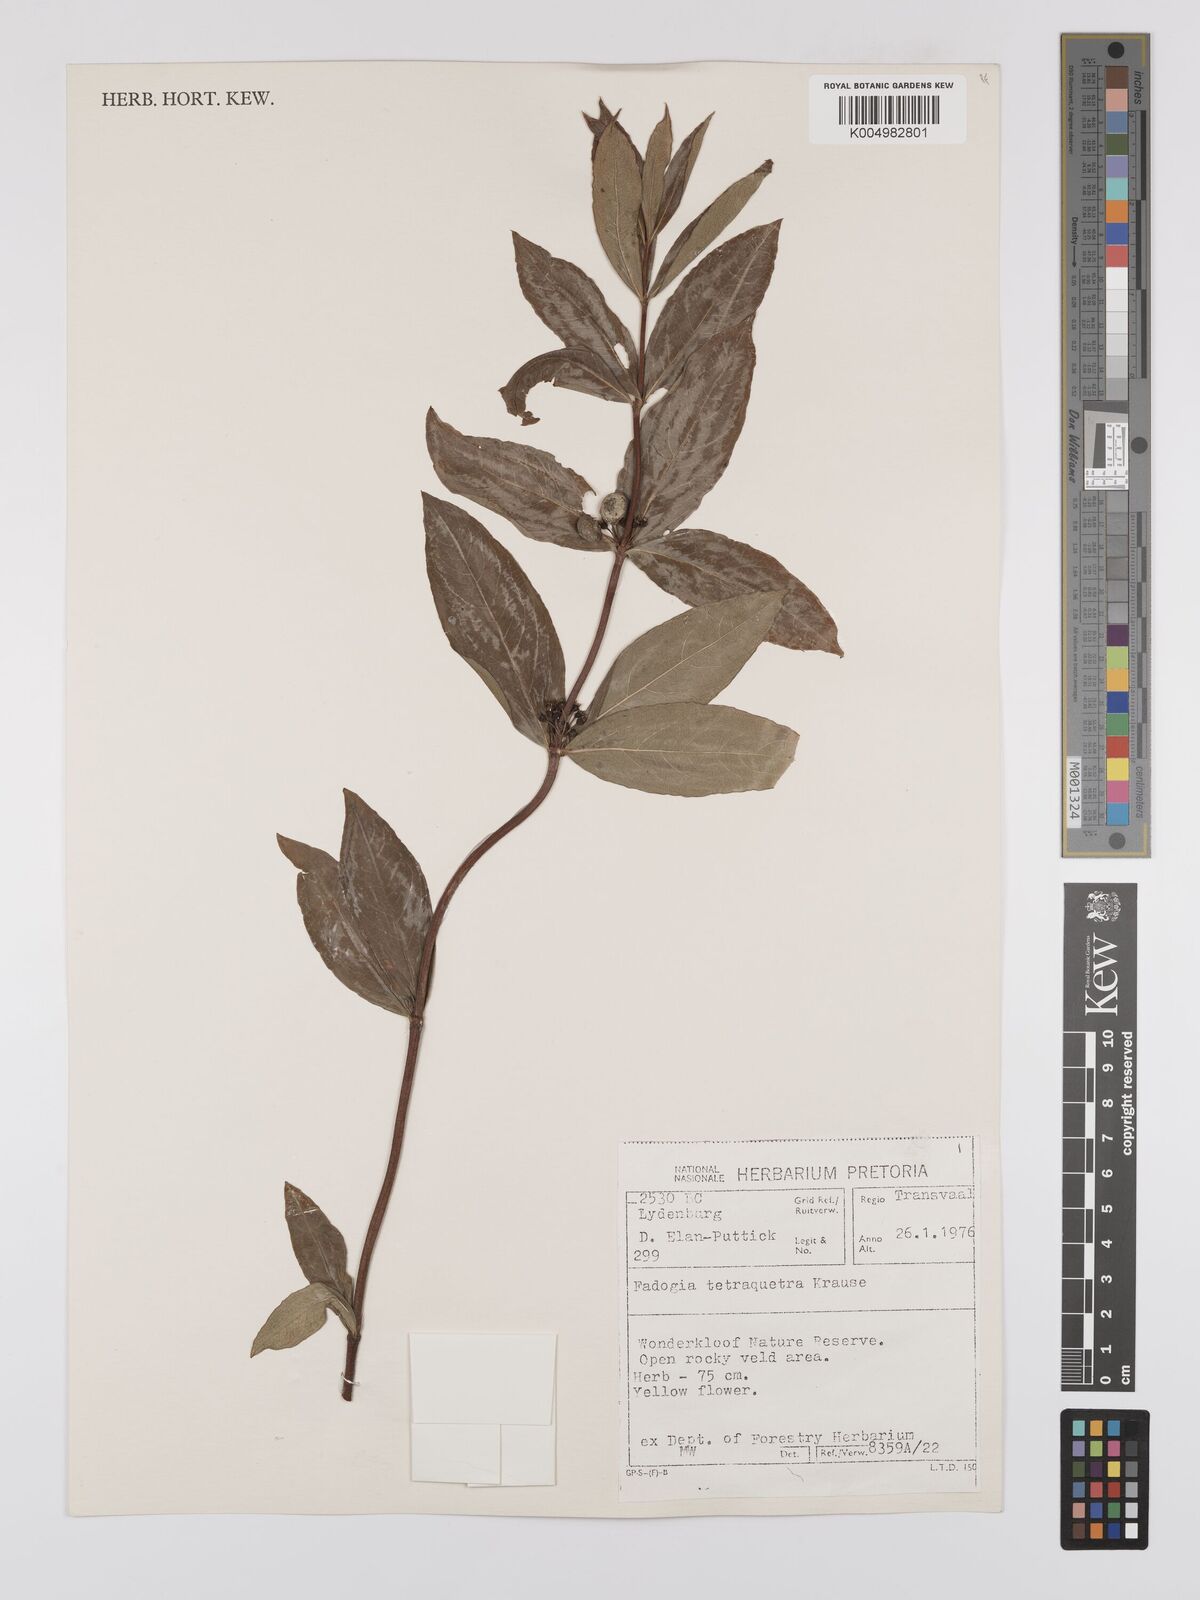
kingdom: Plantae
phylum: Tracheophyta
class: Magnoliopsida
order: Gentianales
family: Rubiaceae
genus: Fadogia
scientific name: Fadogia tetraquetra
